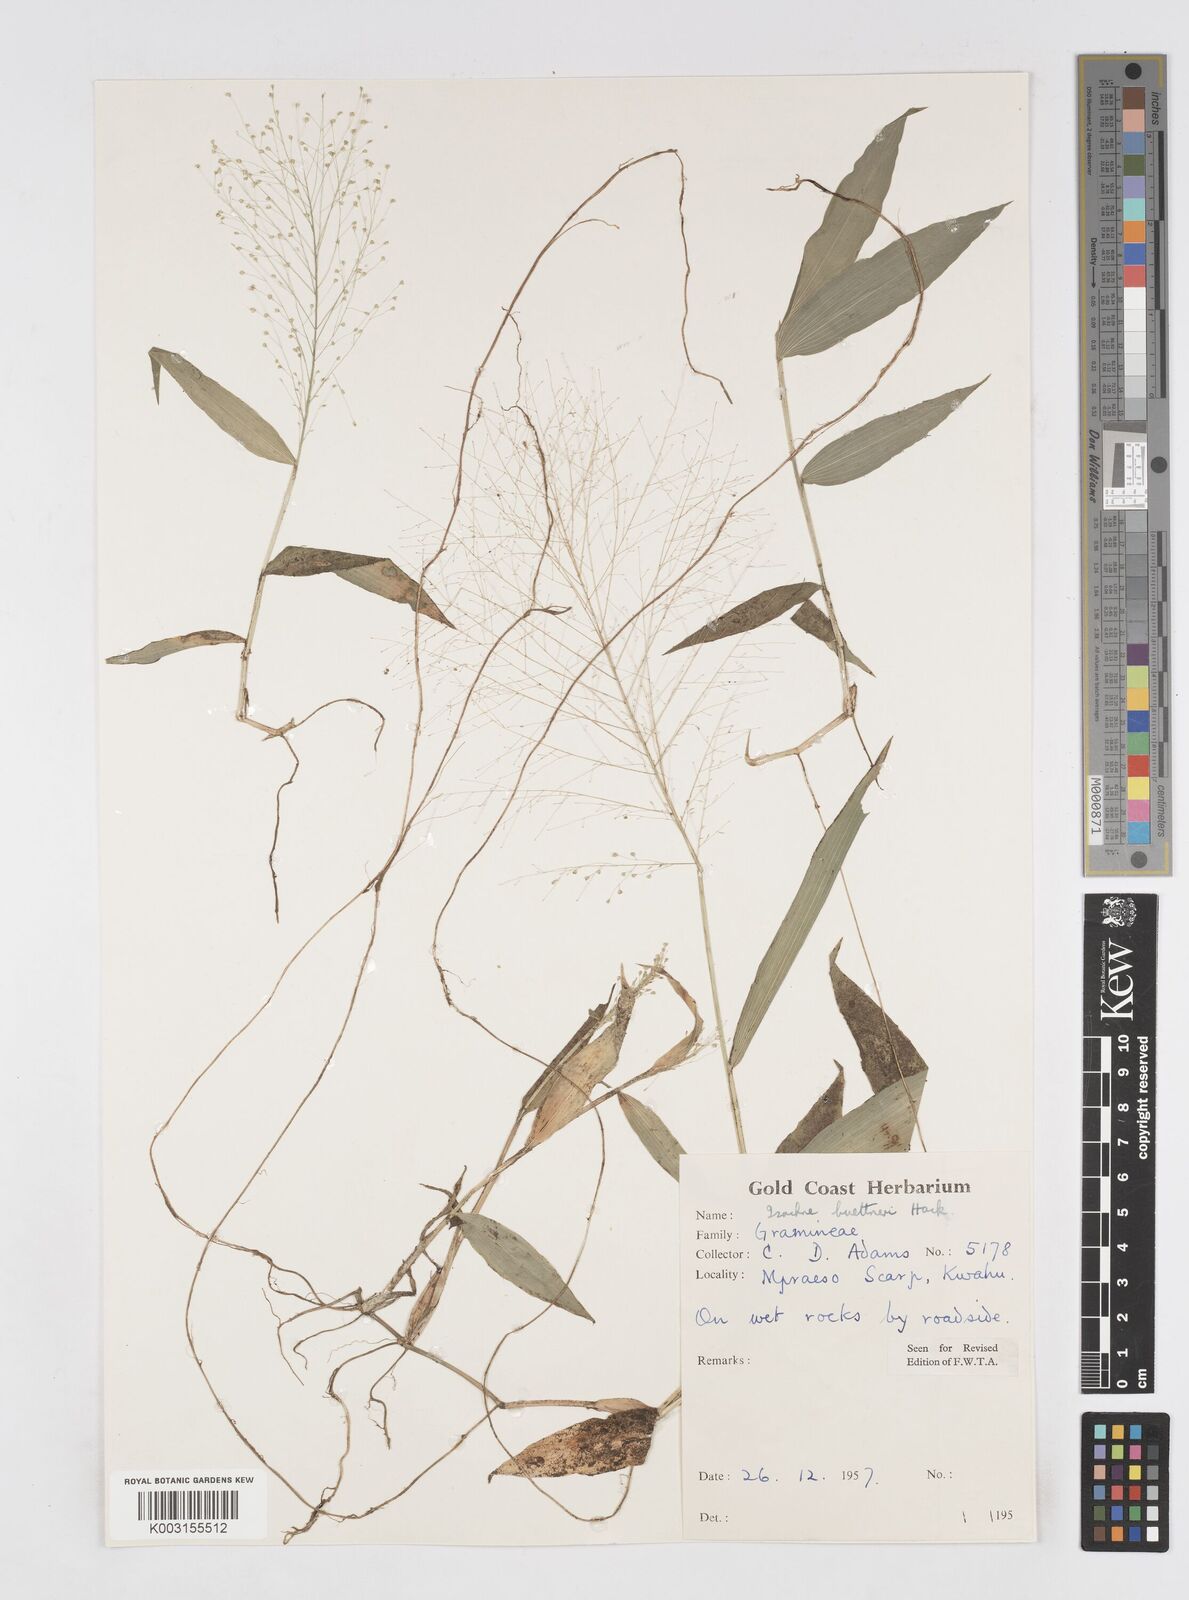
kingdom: Plantae
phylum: Tracheophyta
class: Liliopsida
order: Poales
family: Poaceae
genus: Isachne
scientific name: Isachne albens
